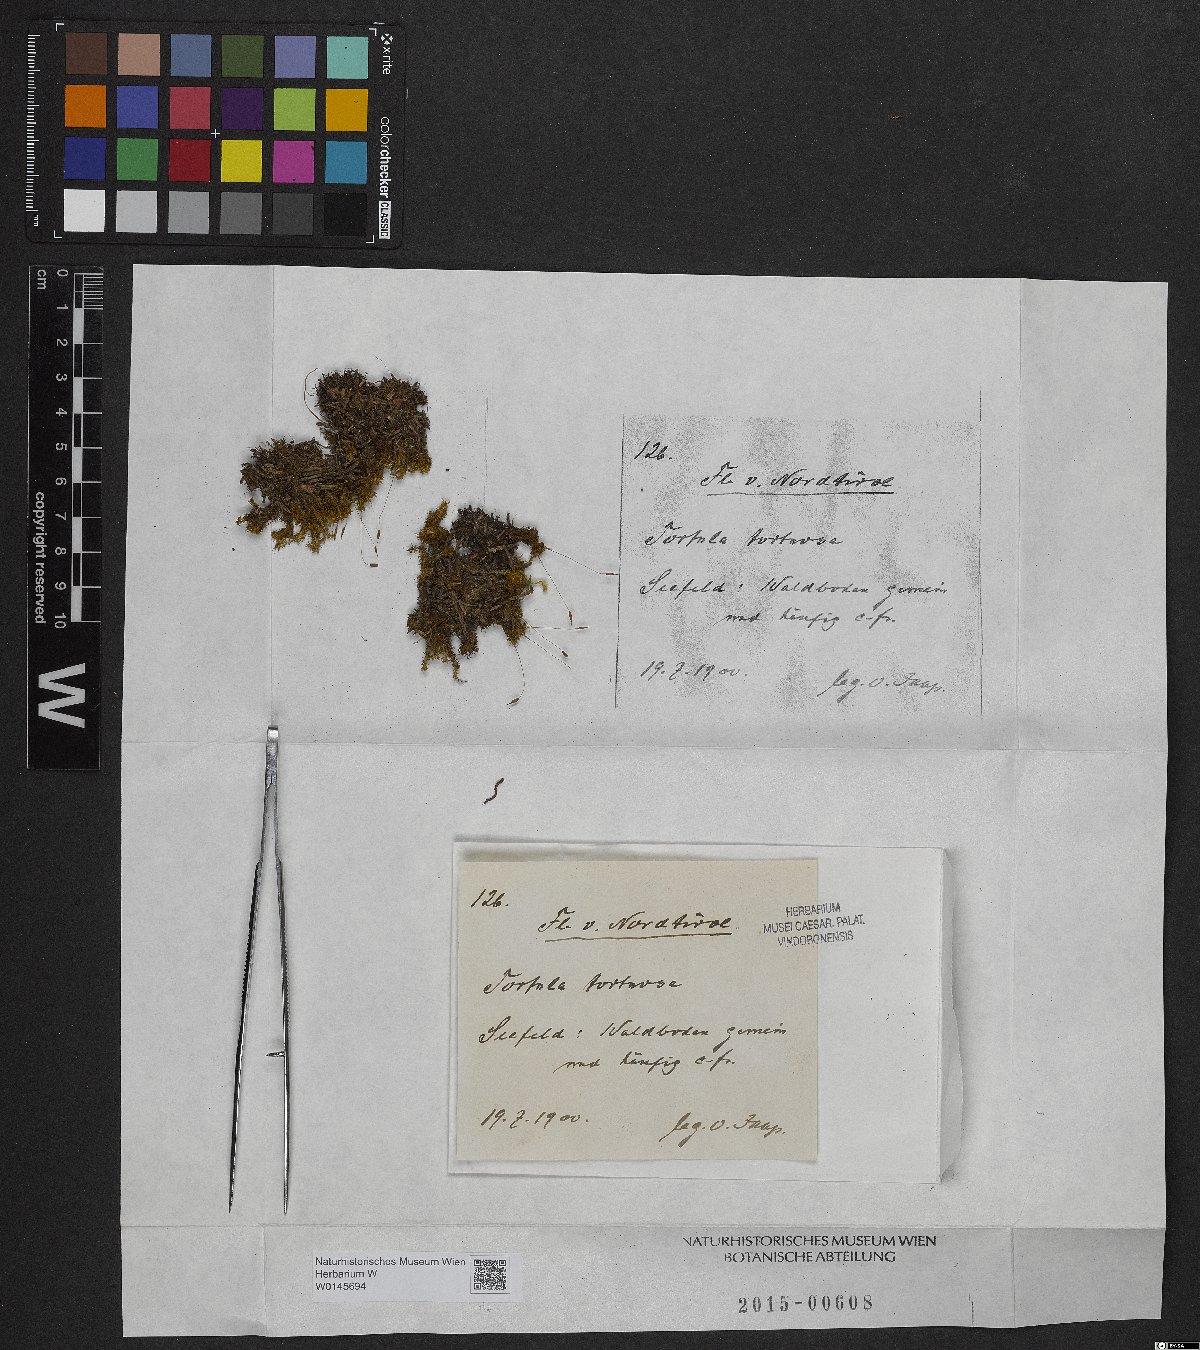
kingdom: Plantae
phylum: Bryophyta
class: Bryopsida
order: Pottiales
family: Pottiaceae
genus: Tortella
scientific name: Tortella tortuosa
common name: Frizzled crisp moss
